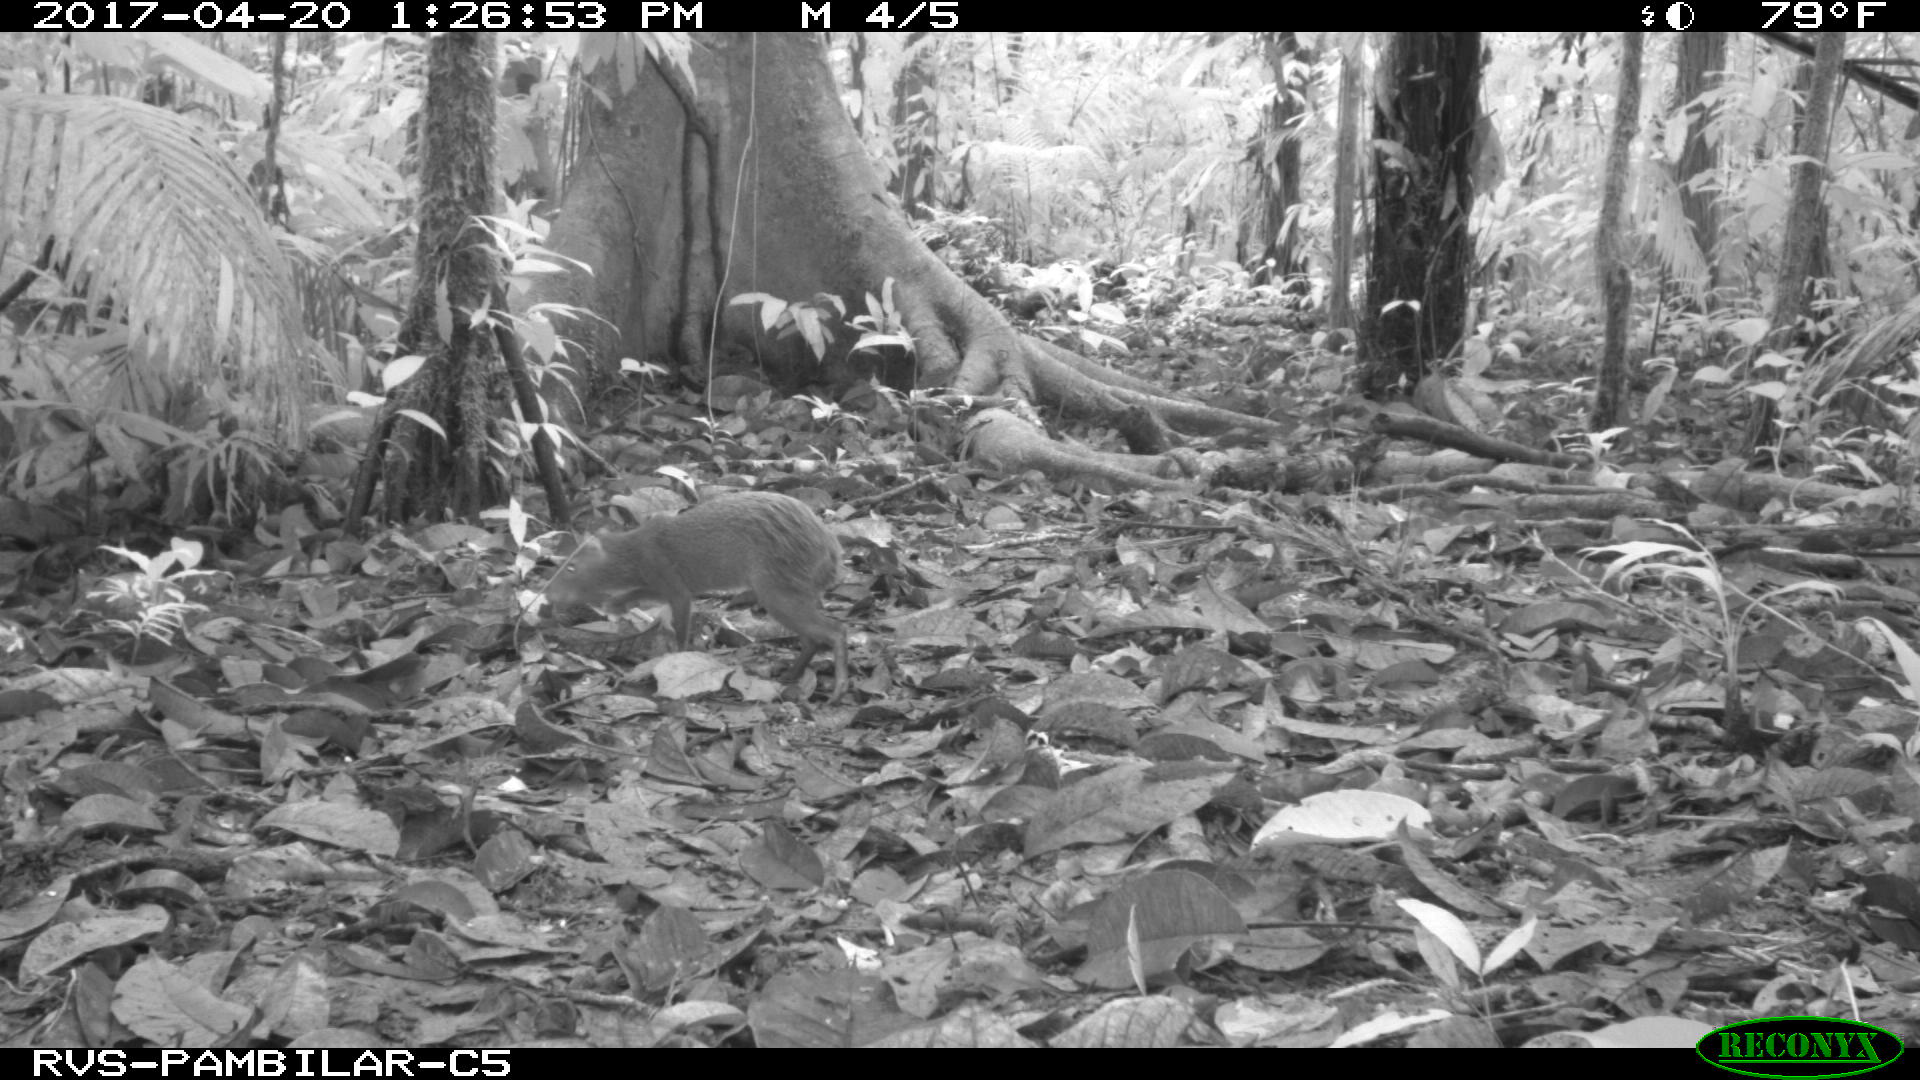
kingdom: Animalia
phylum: Chordata
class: Mammalia
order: Rodentia
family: Dasyproctidae
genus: Dasyprocta
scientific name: Dasyprocta punctata
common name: Central american agouti
